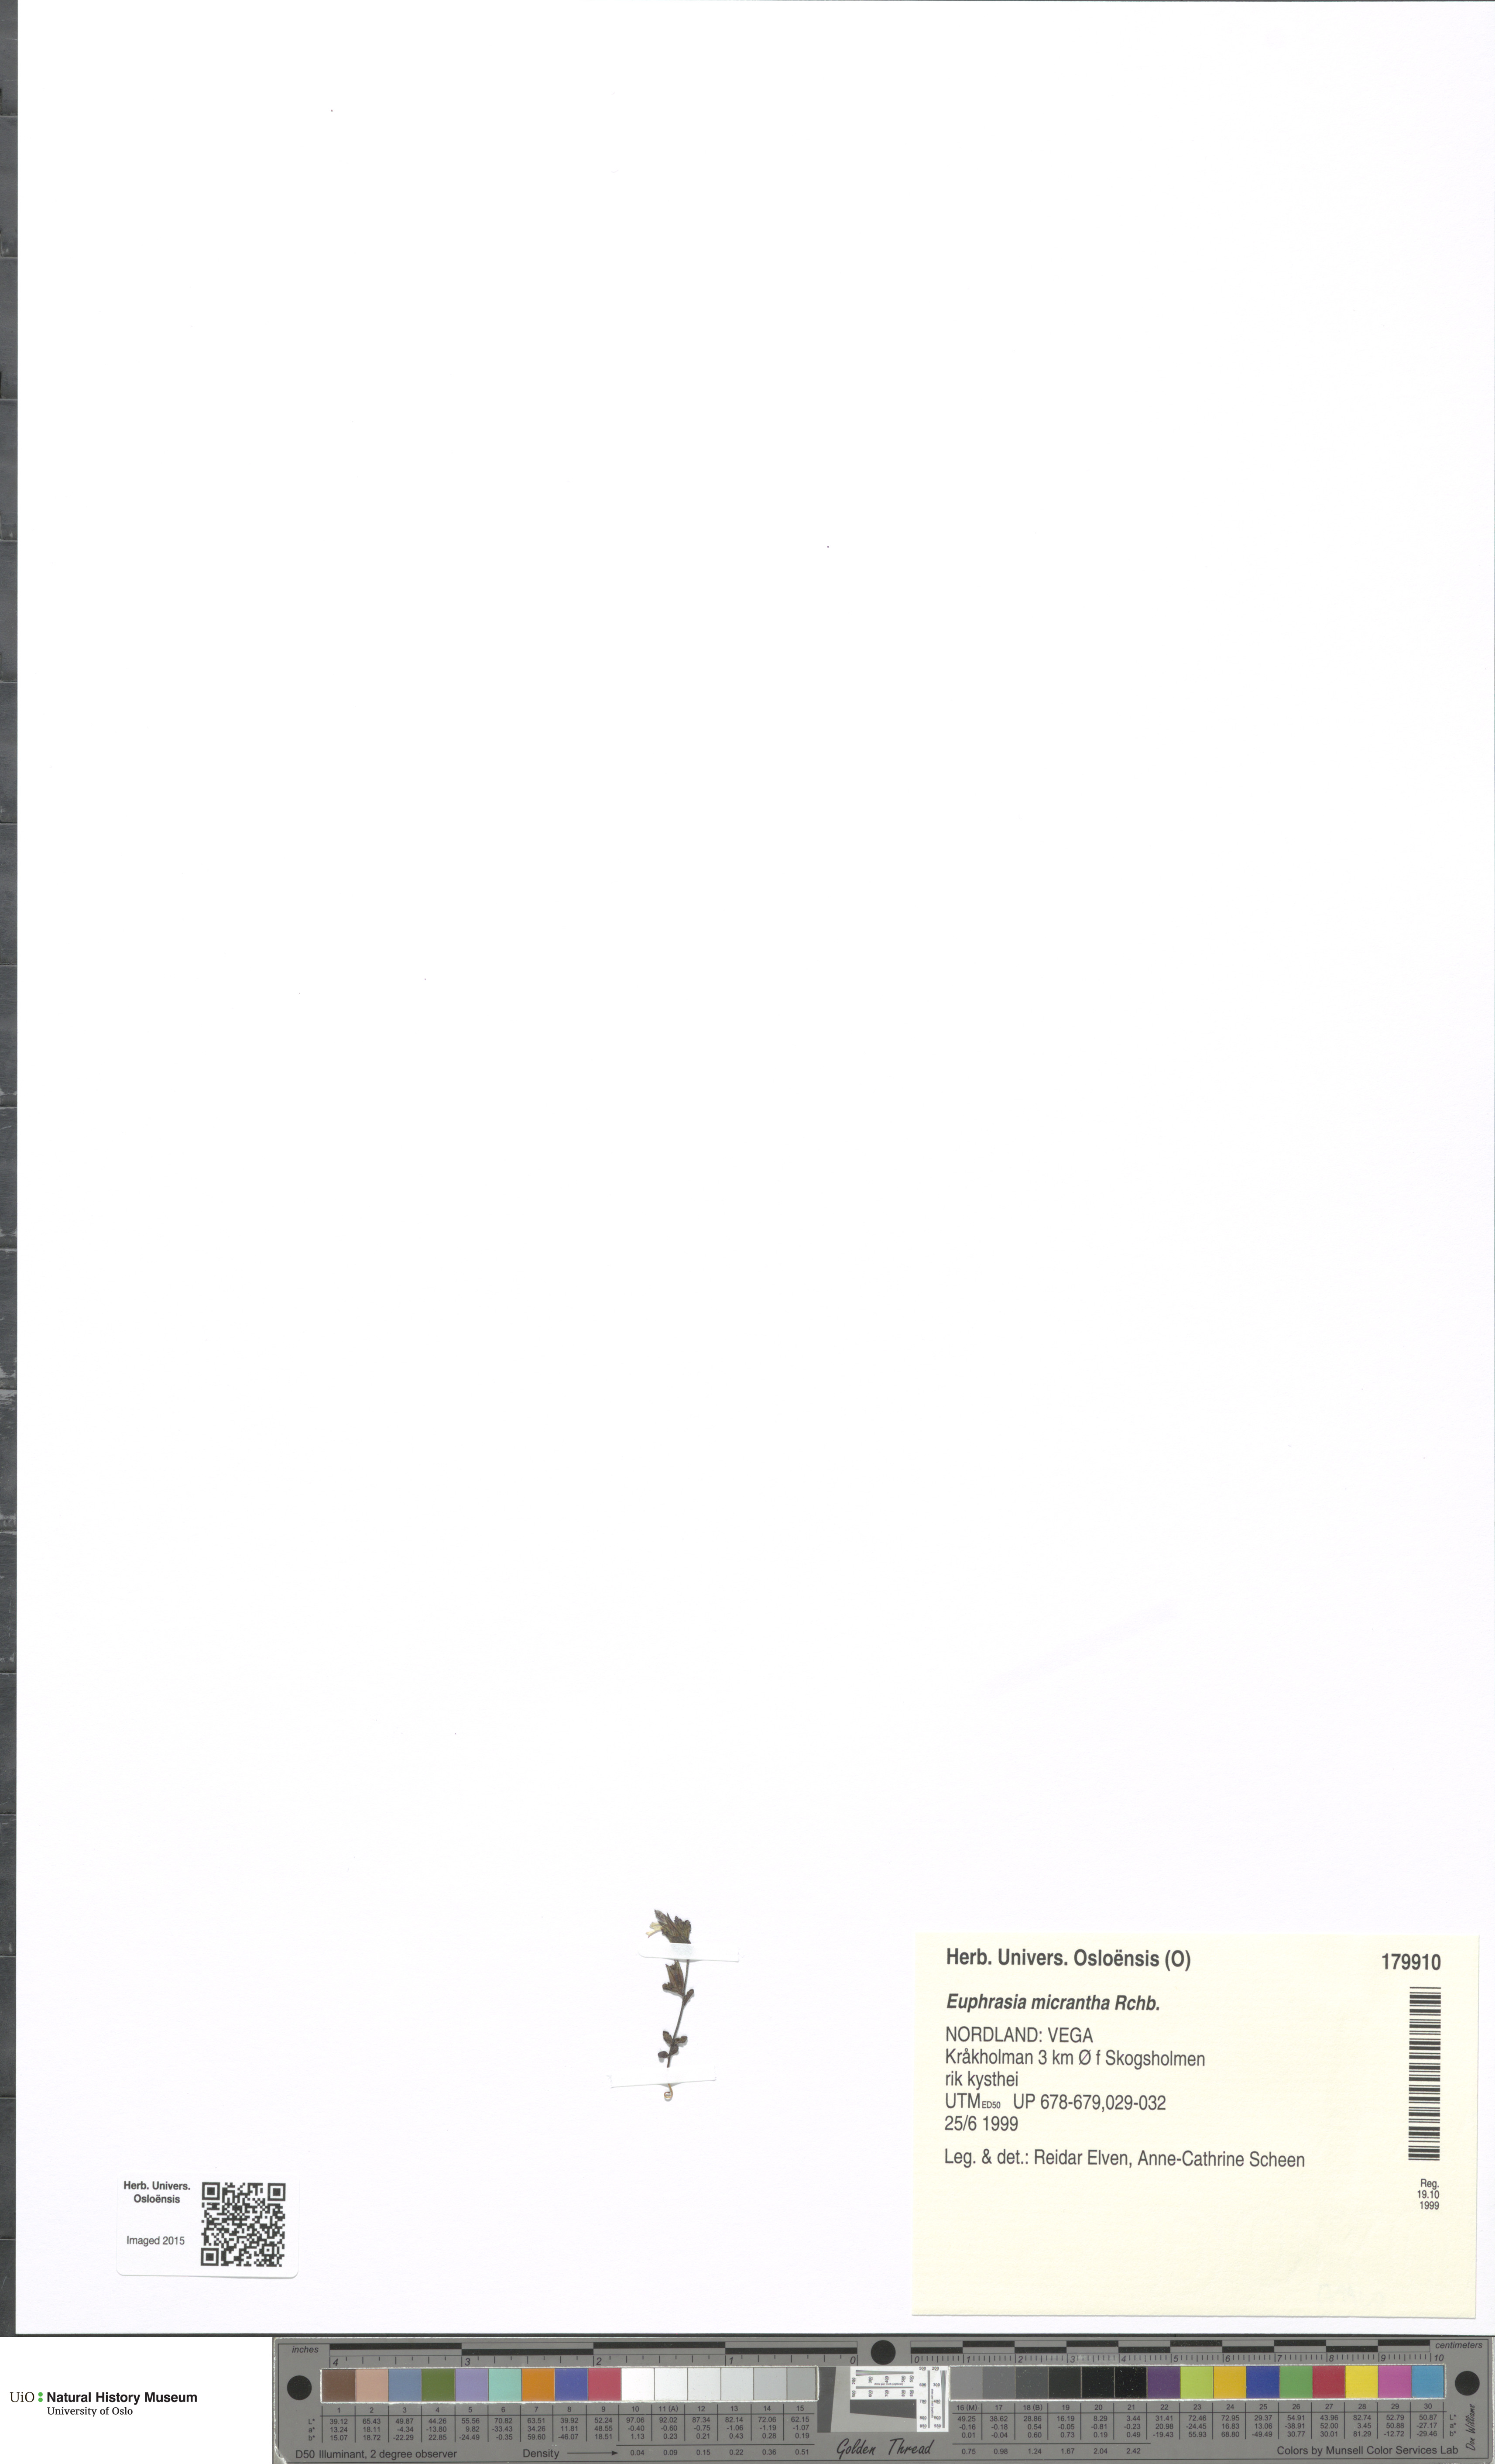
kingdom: Plantae
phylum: Tracheophyta
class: Magnoliopsida
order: Lamiales
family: Orobanchaceae
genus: Euphrasia
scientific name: Euphrasia micrantha
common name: Northern eyebright
